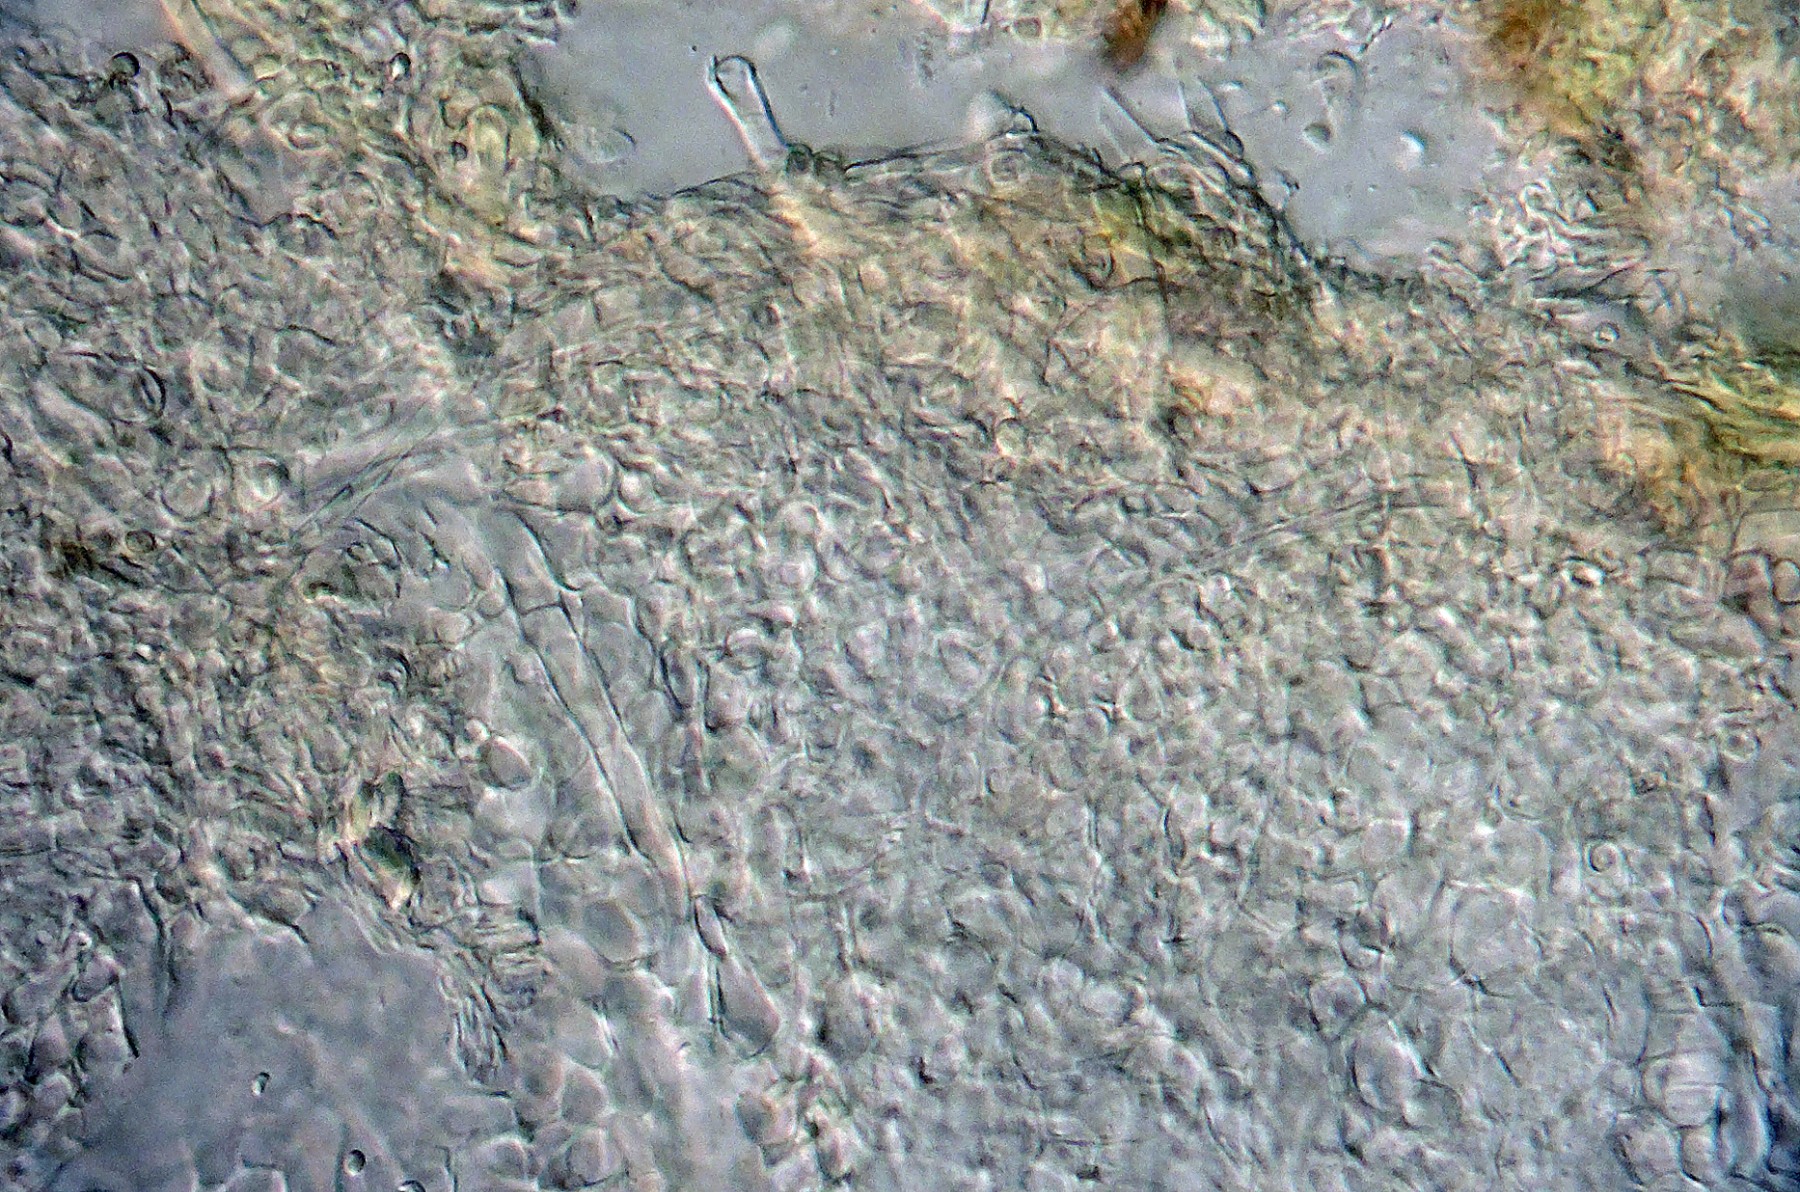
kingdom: Fungi
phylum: Ascomycota
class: Sordariomycetes
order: Hypocreales
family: Hypocreaceae
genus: Trichoderma
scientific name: Trichoderma sinuosum
